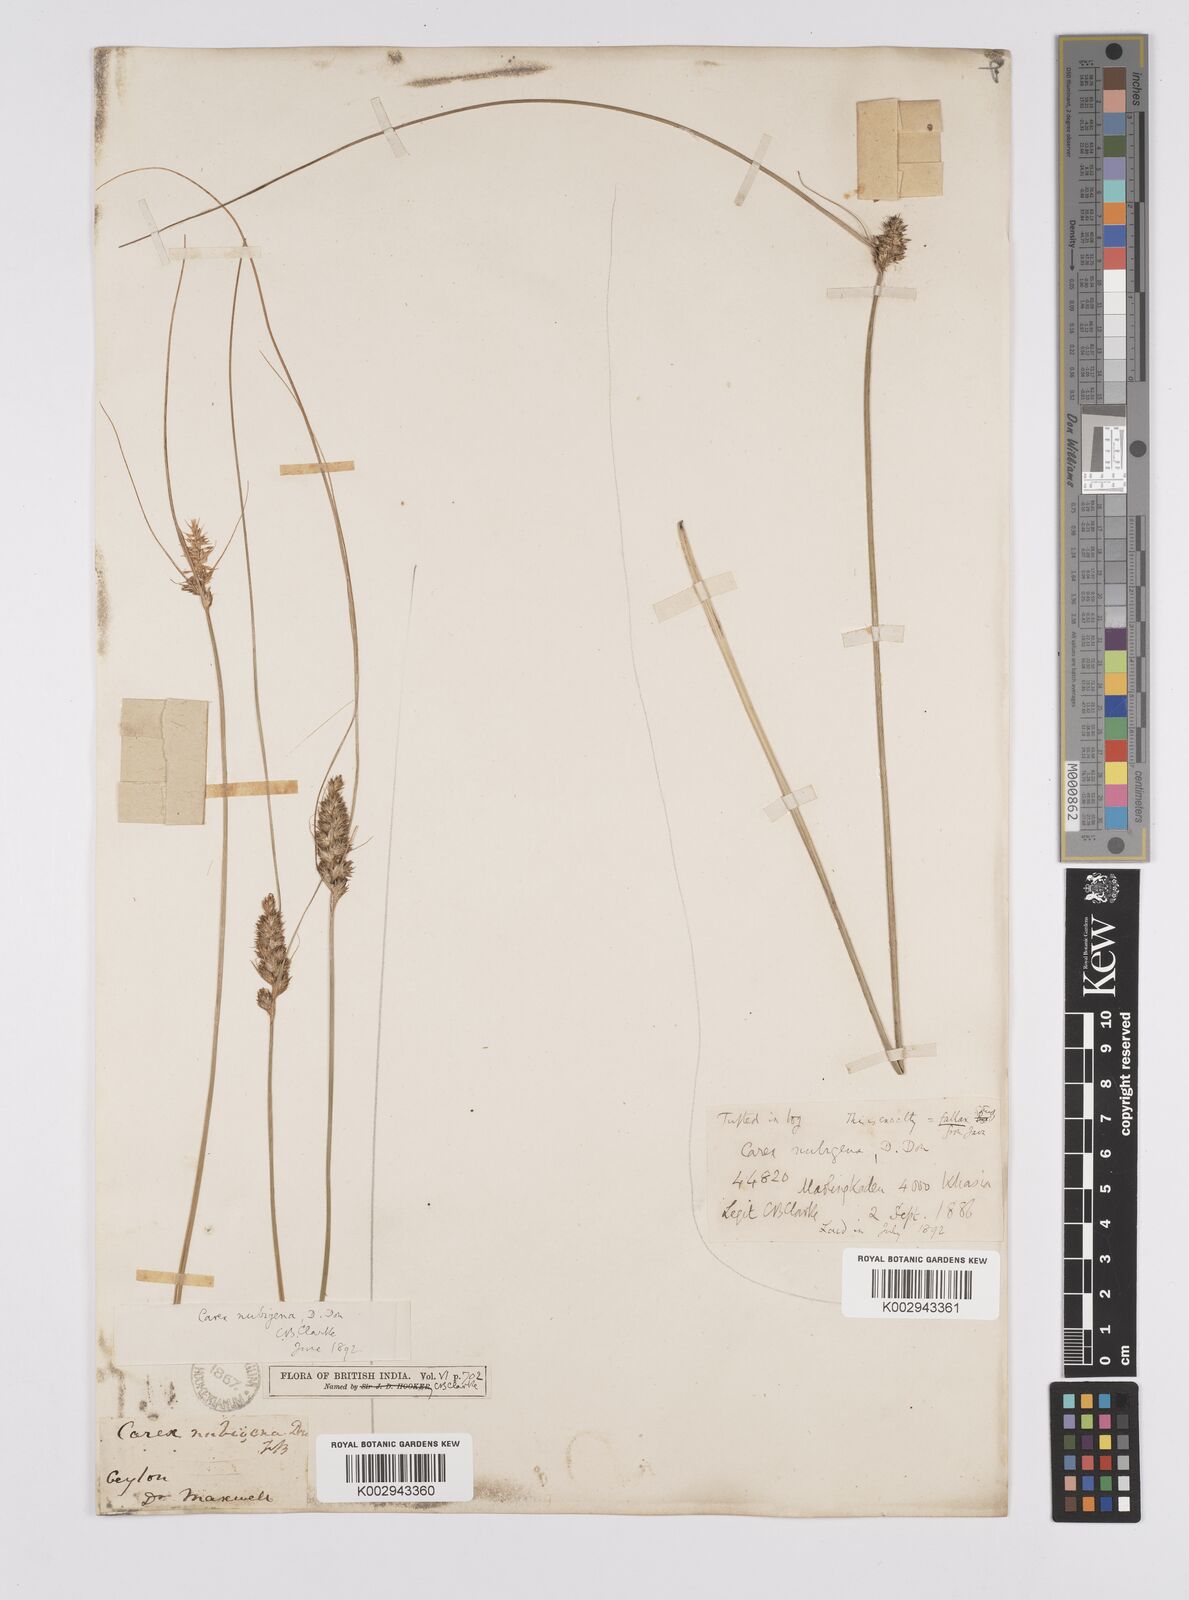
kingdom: Plantae
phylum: Tracheophyta
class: Liliopsida
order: Poales
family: Cyperaceae
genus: Carex
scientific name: Carex nubigena
